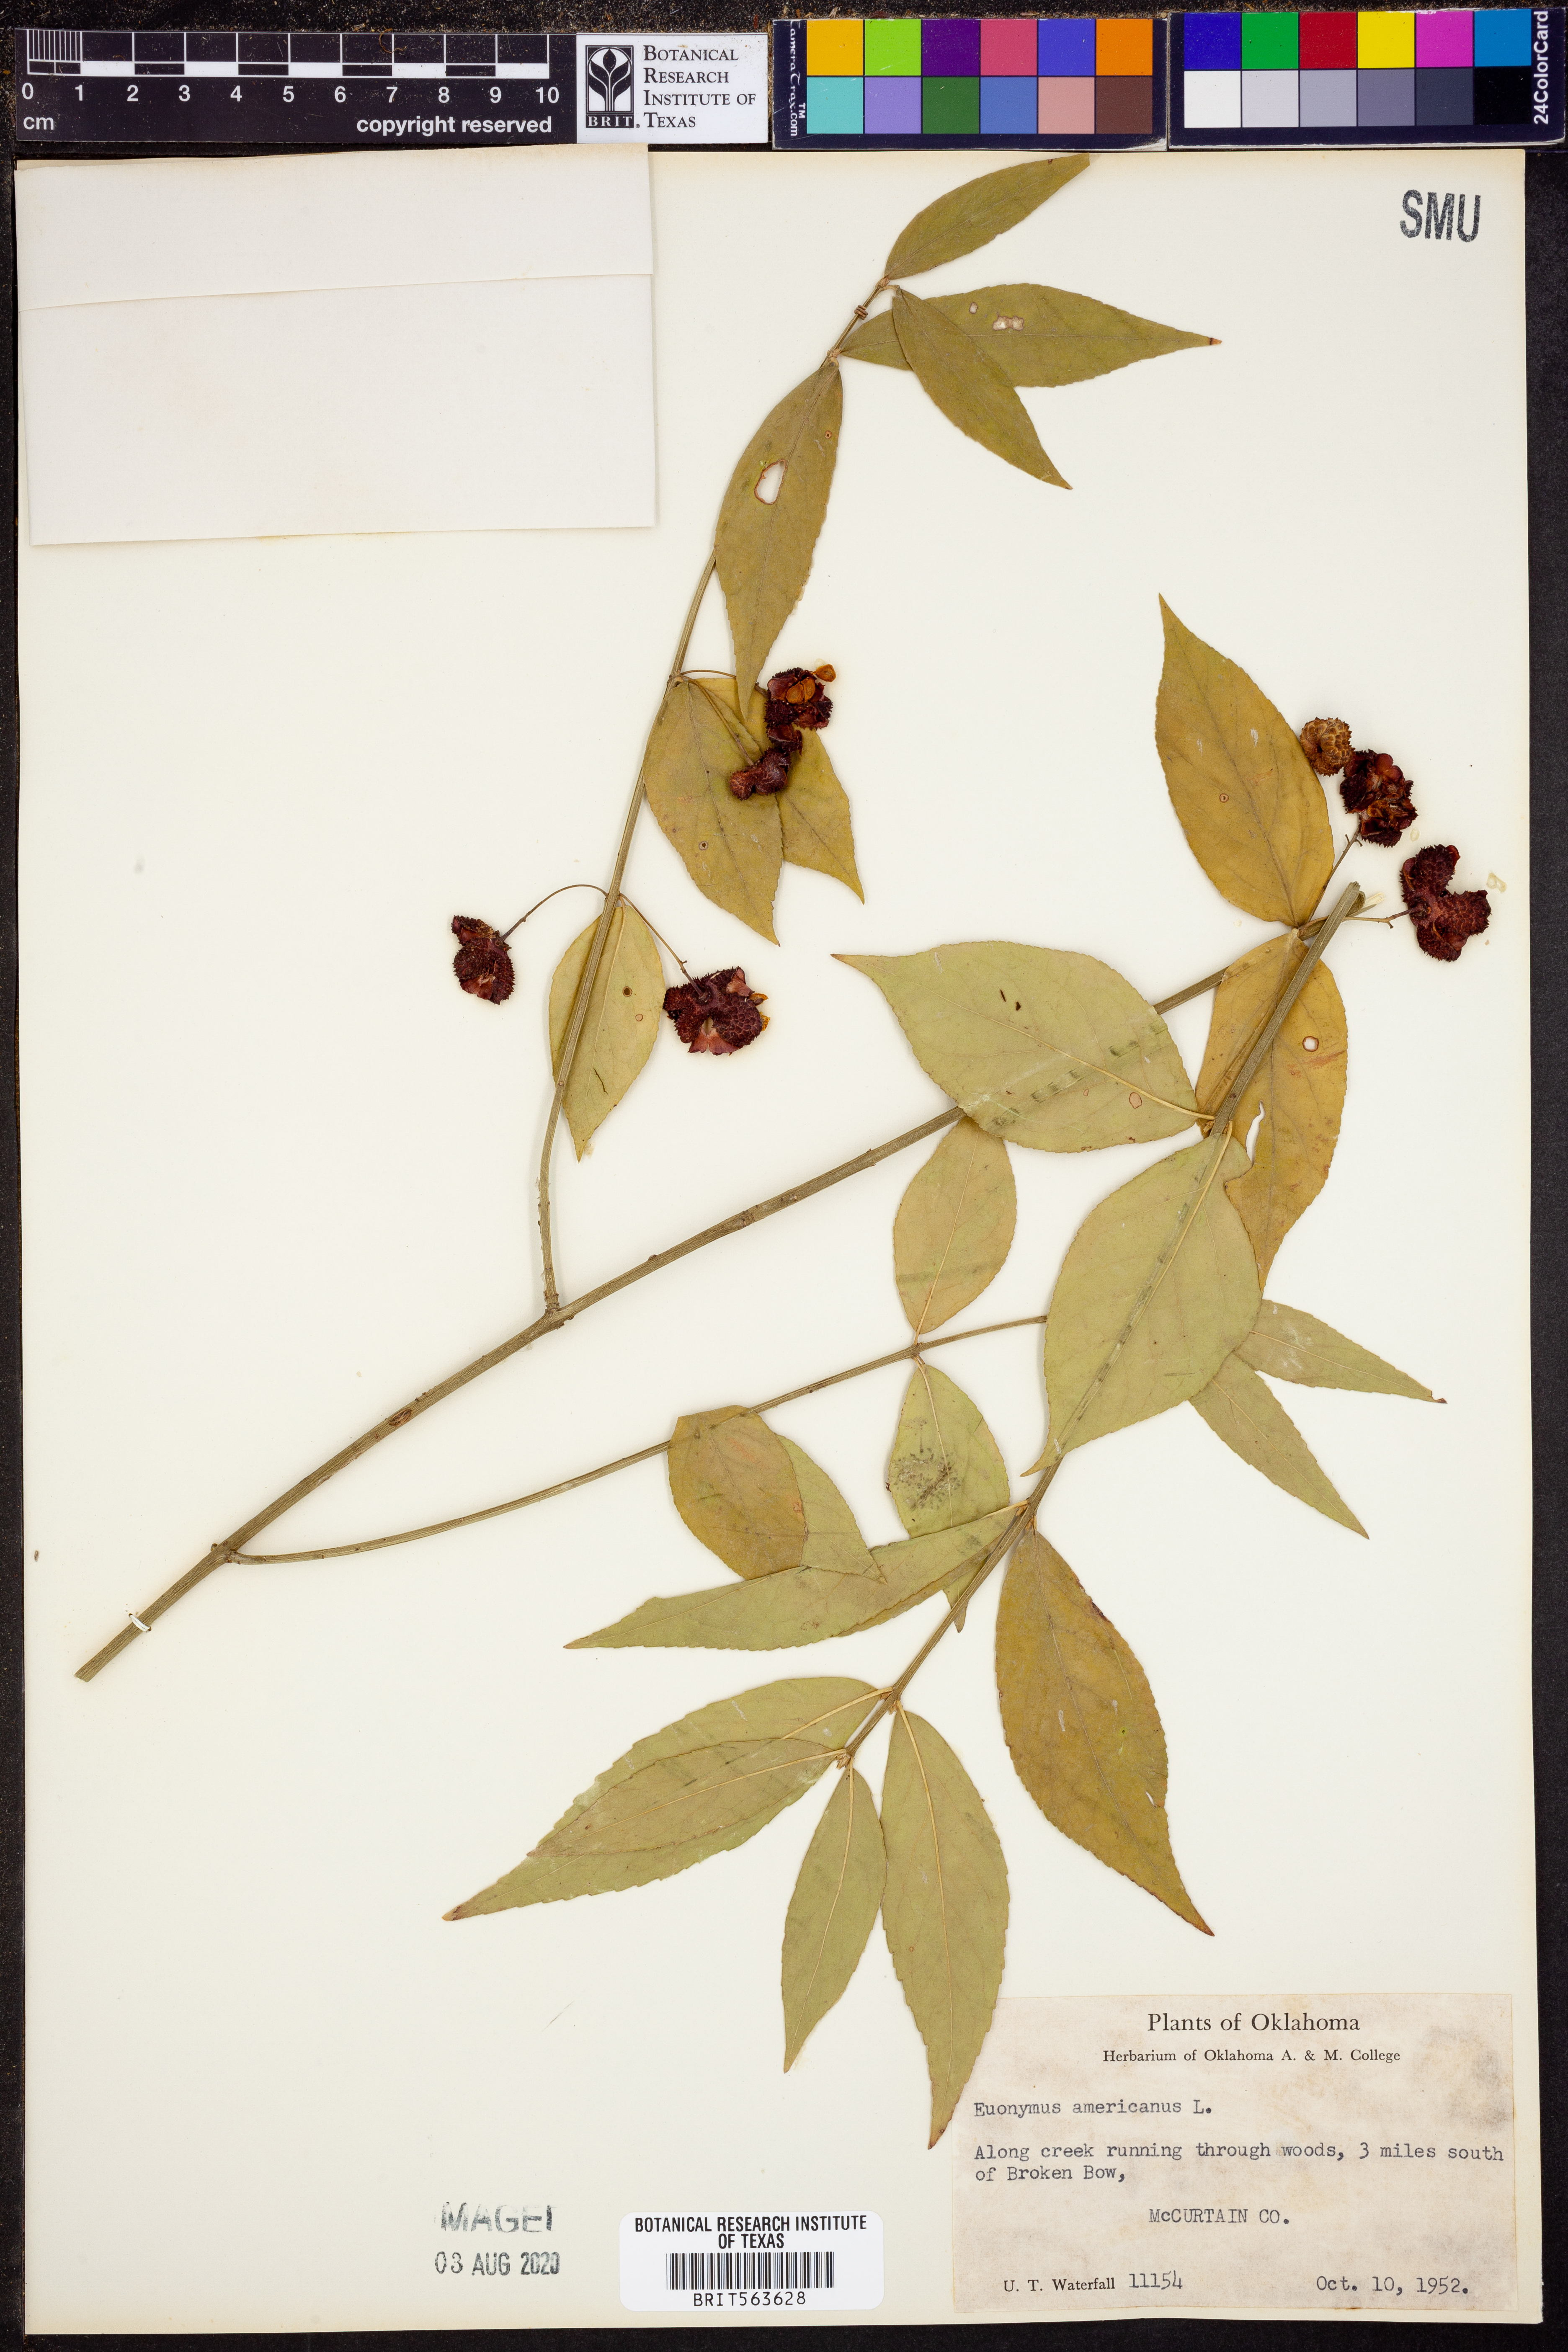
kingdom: Plantae
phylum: Tracheophyta
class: Magnoliopsida
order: Celastrales
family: Celastraceae
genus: Euonymus
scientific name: Euonymus americanus
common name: Bursting-heart
